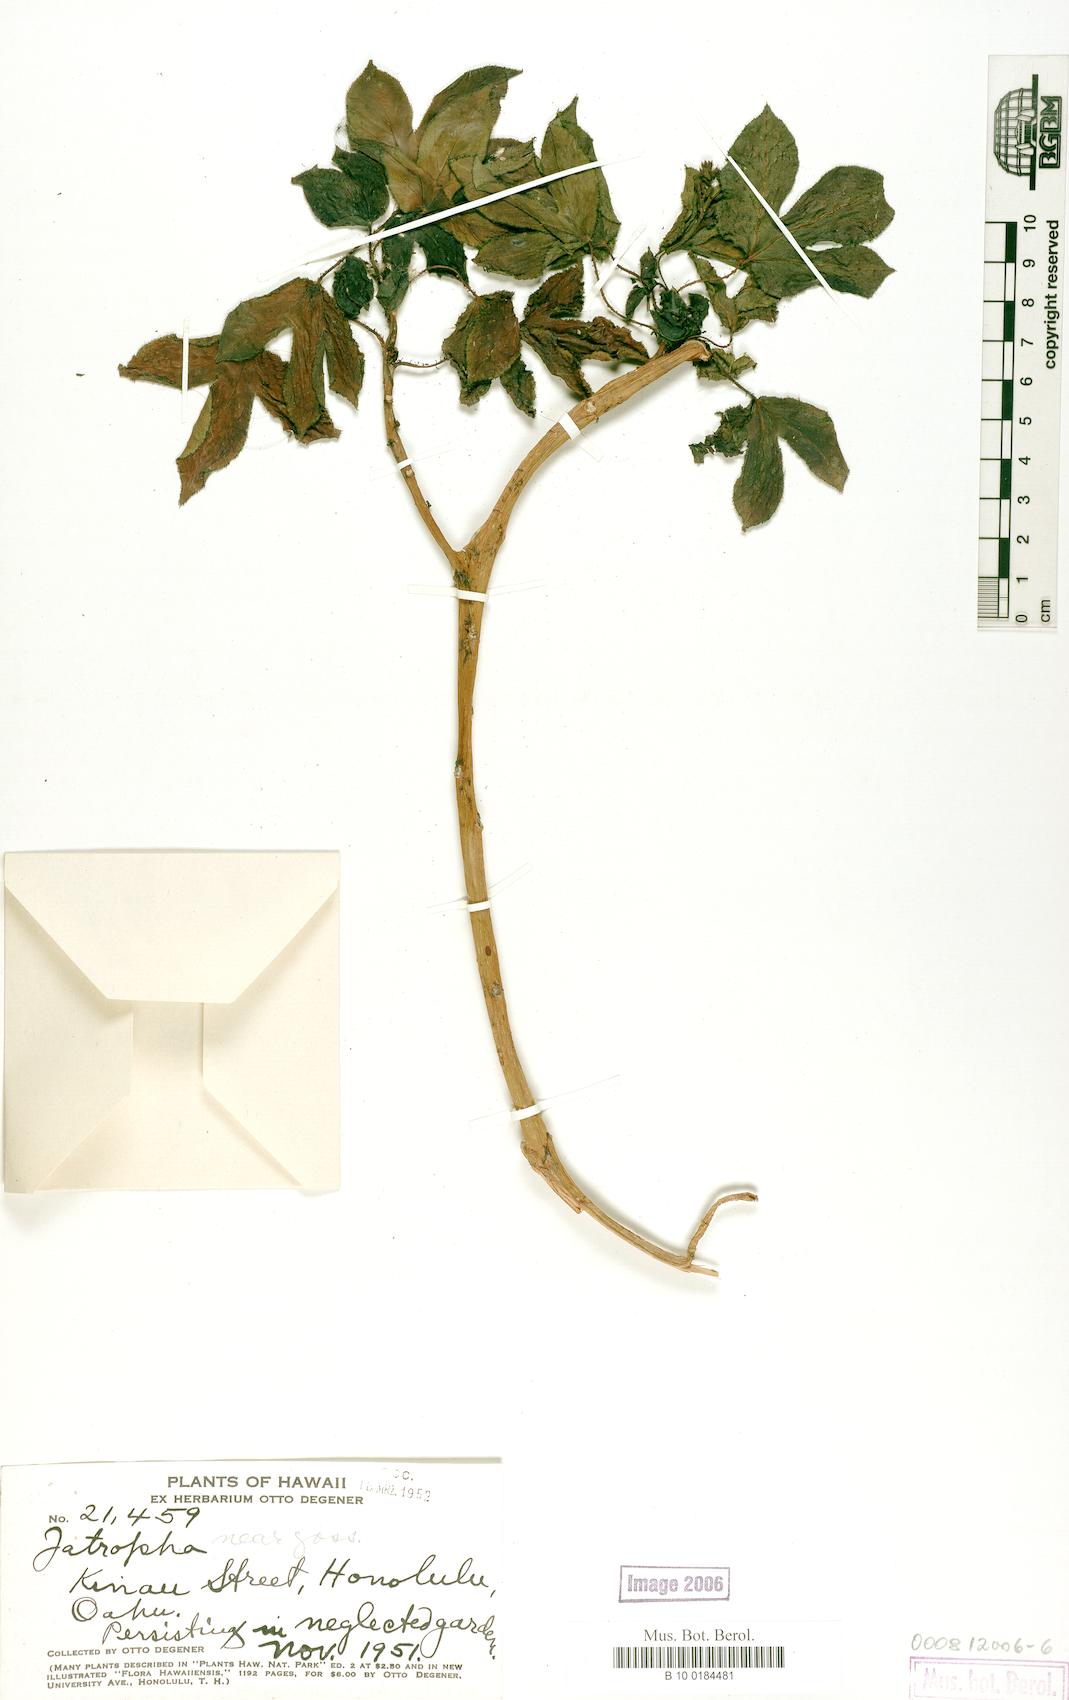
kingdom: Plantae
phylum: Tracheophyta
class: Magnoliopsida
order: Malpighiales
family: Euphorbiaceae
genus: Jatropha
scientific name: Jatropha gossypiifolia
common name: Bellyache bush
